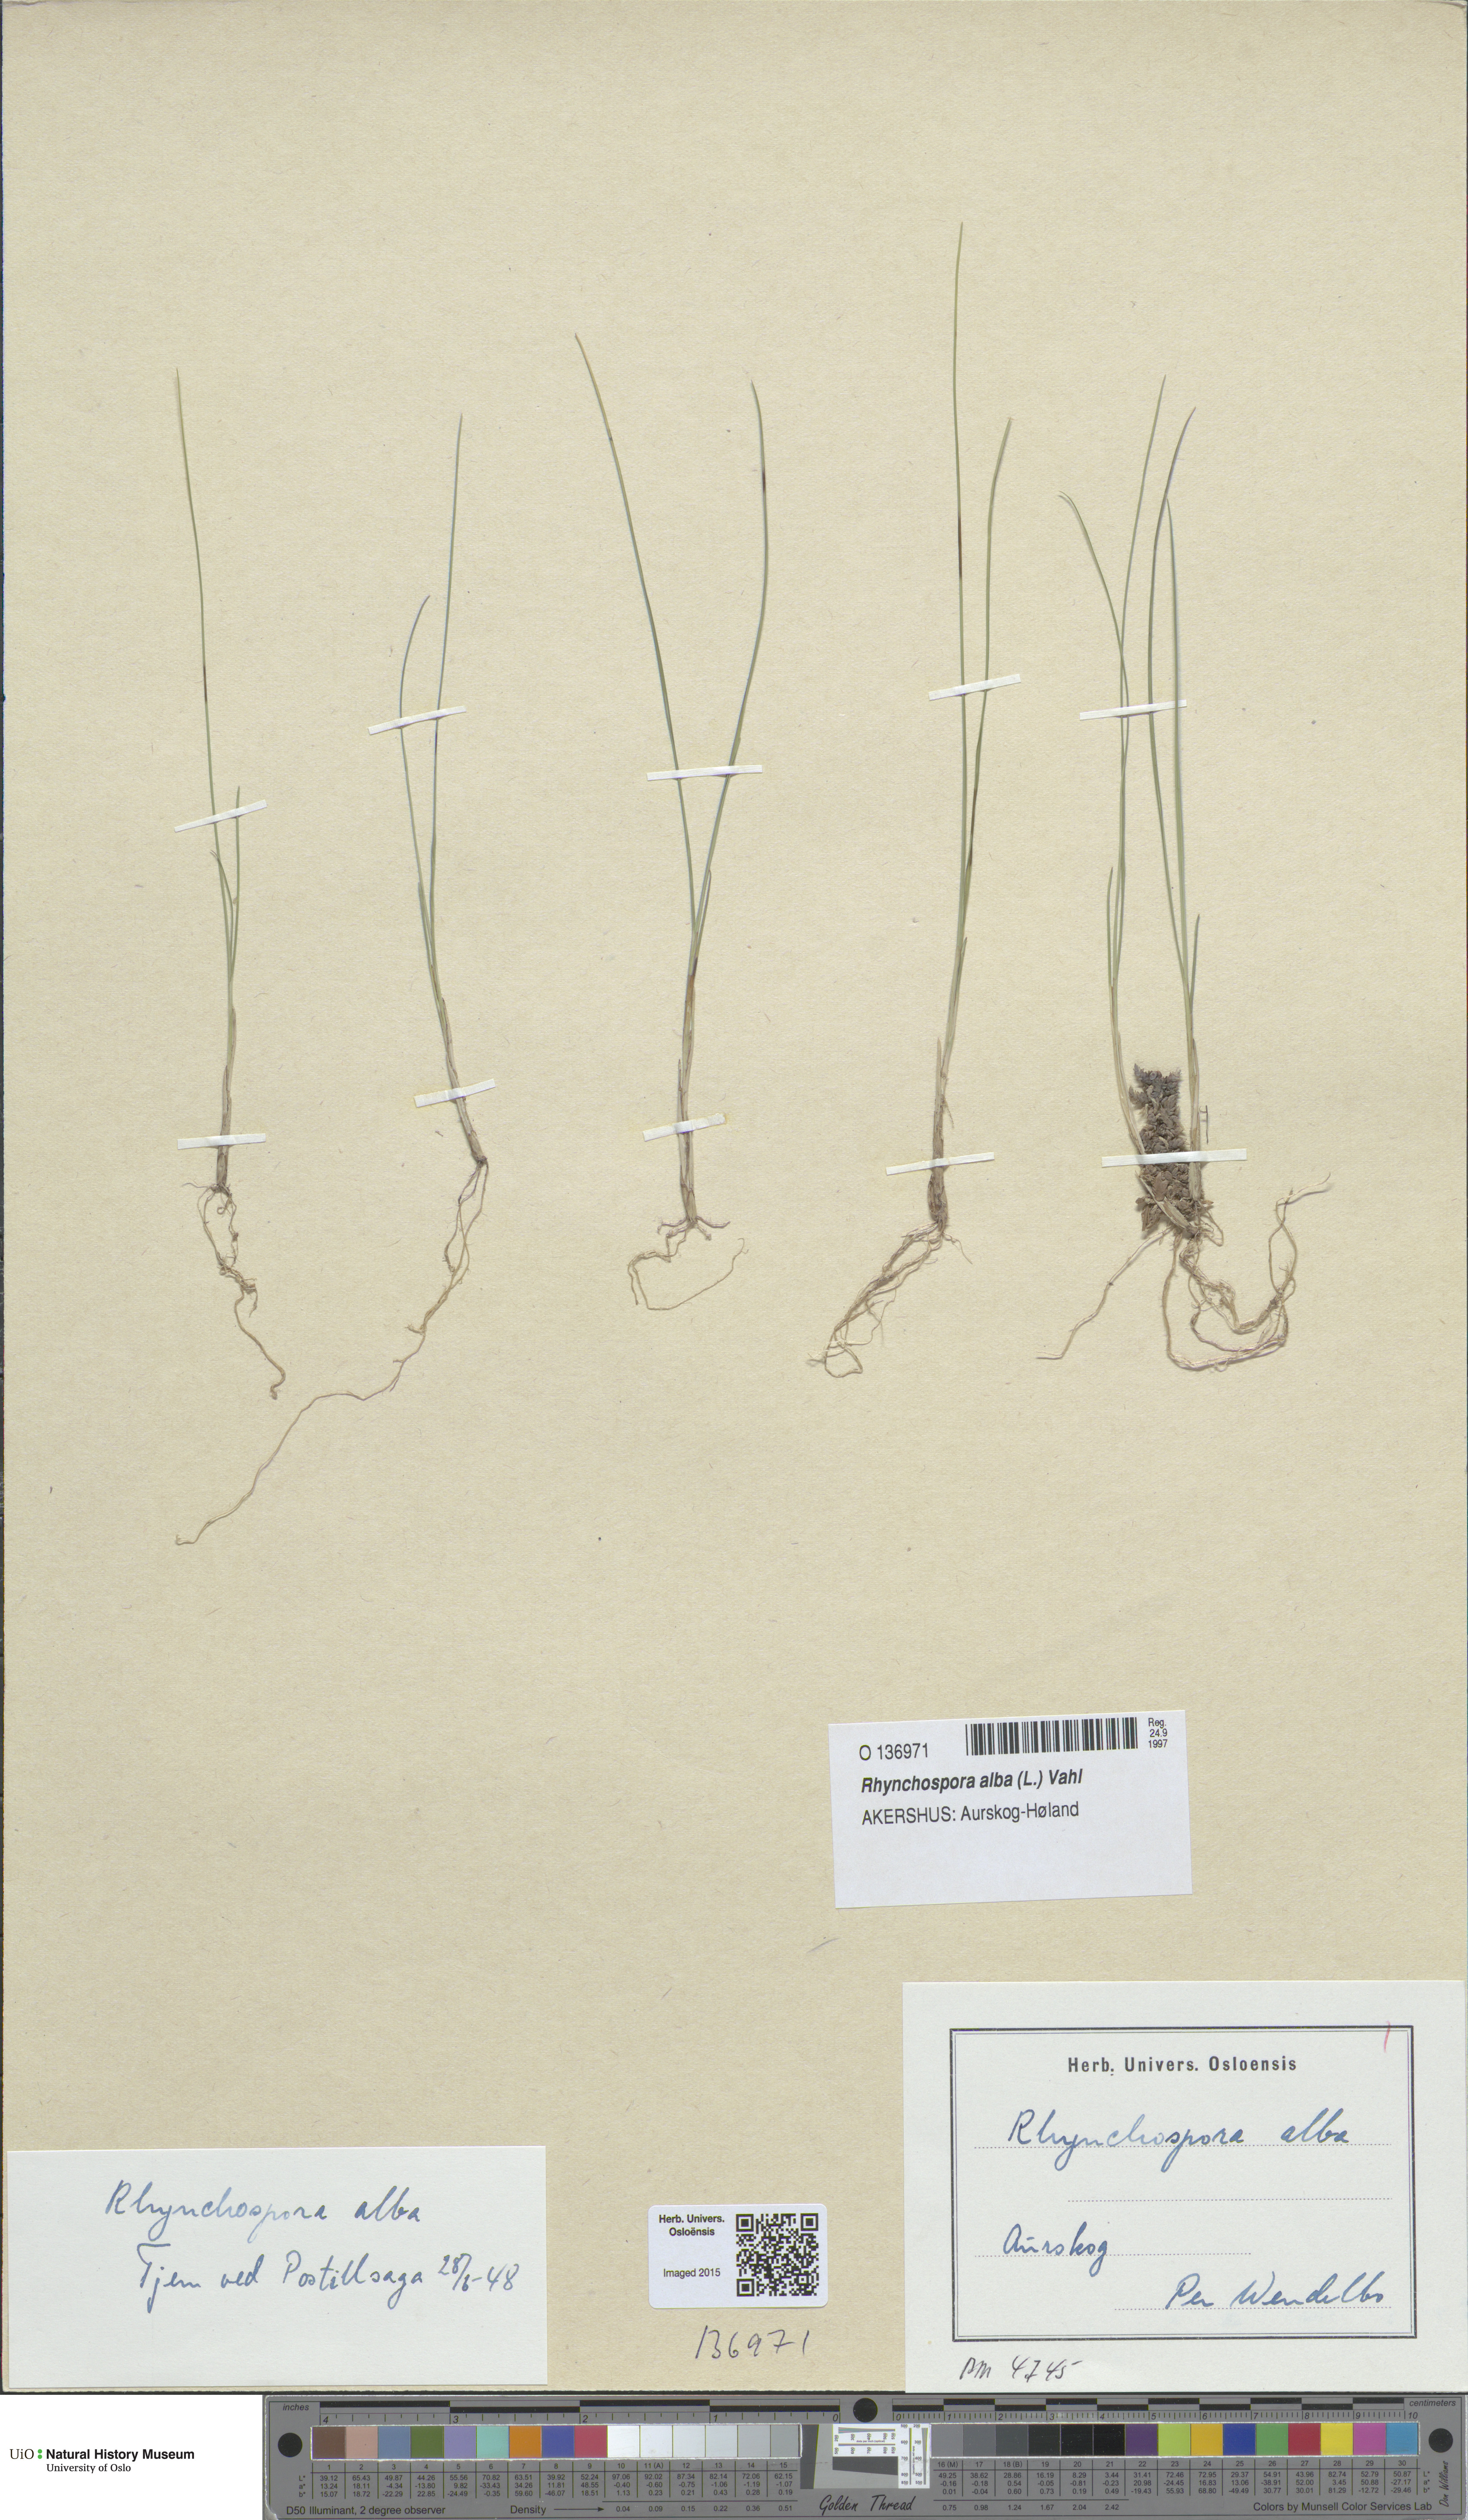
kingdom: Plantae
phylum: Tracheophyta
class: Liliopsida
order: Poales
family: Cyperaceae
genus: Rhynchospora
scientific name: Rhynchospora alba
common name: White beak-sedge
